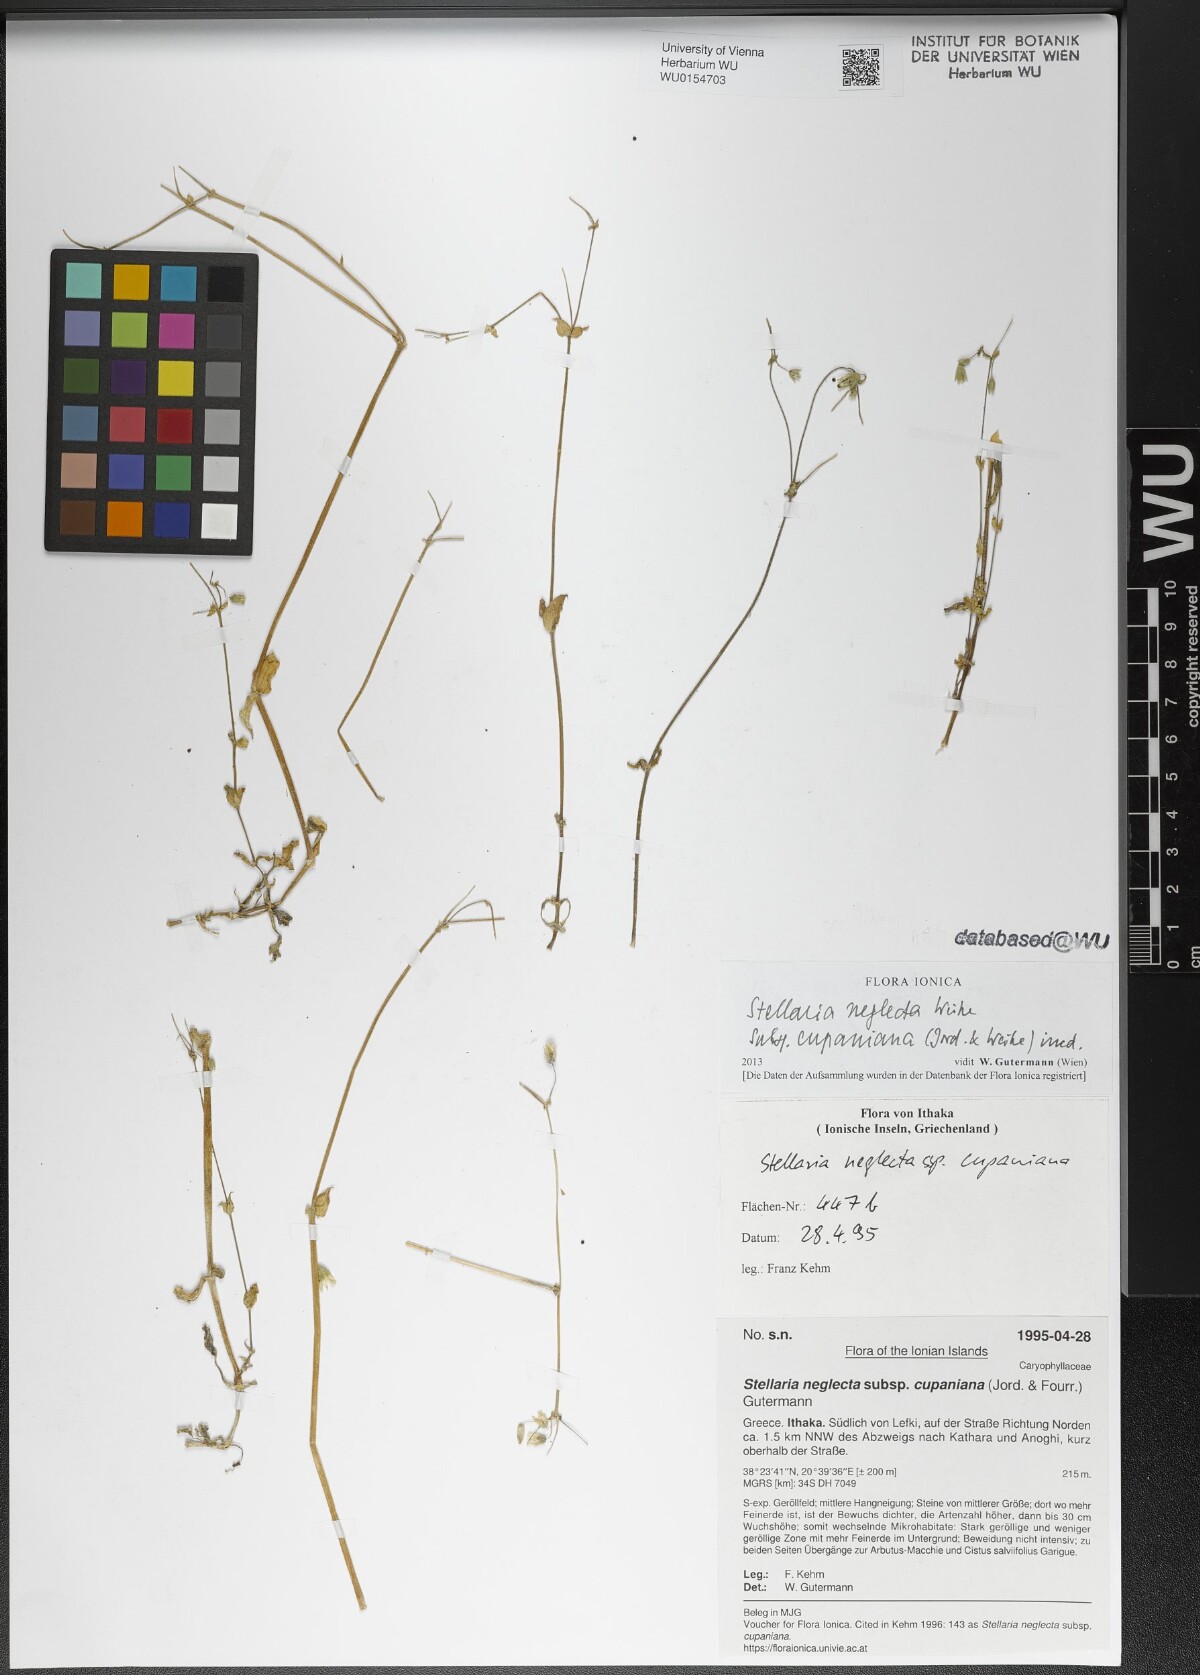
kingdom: Plantae
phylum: Tracheophyta
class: Magnoliopsida
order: Caryophyllales
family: Caryophyllaceae
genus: Stellaria
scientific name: Stellaria cupaniana
